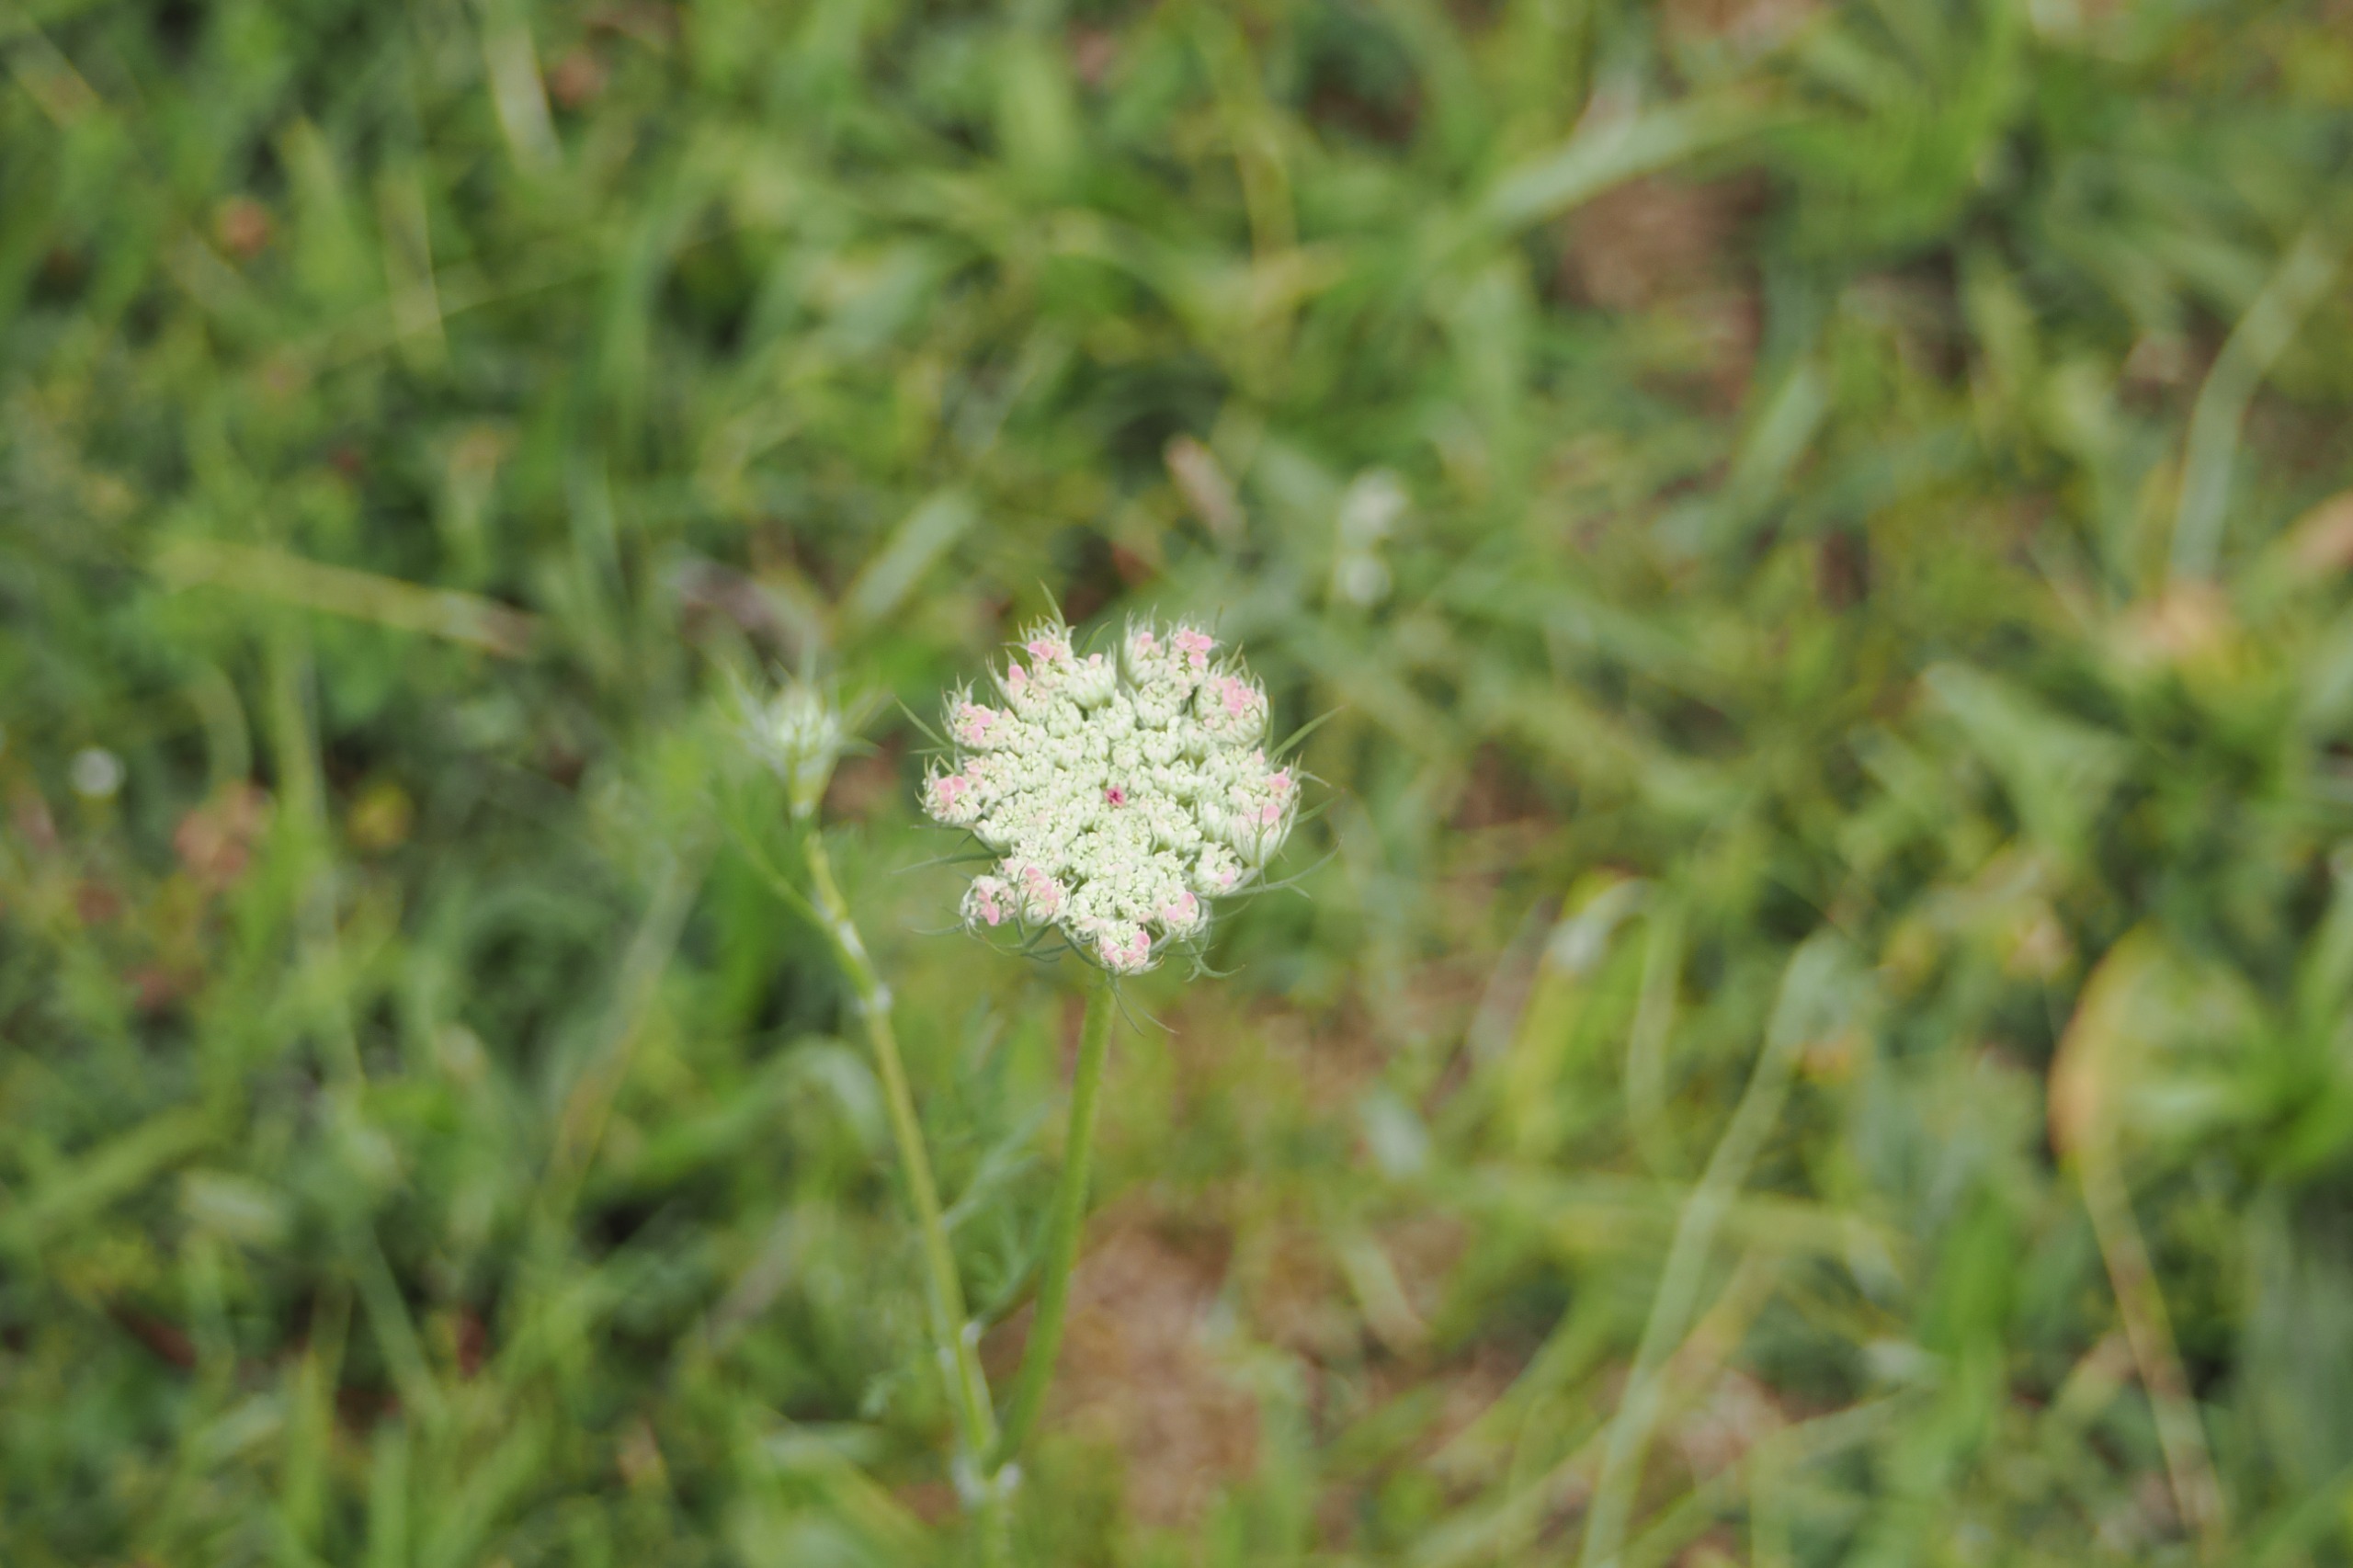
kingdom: Plantae
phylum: Tracheophyta
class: Magnoliopsida
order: Apiales
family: Apiaceae
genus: Daucus
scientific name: Daucus carota
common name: Gulerod
